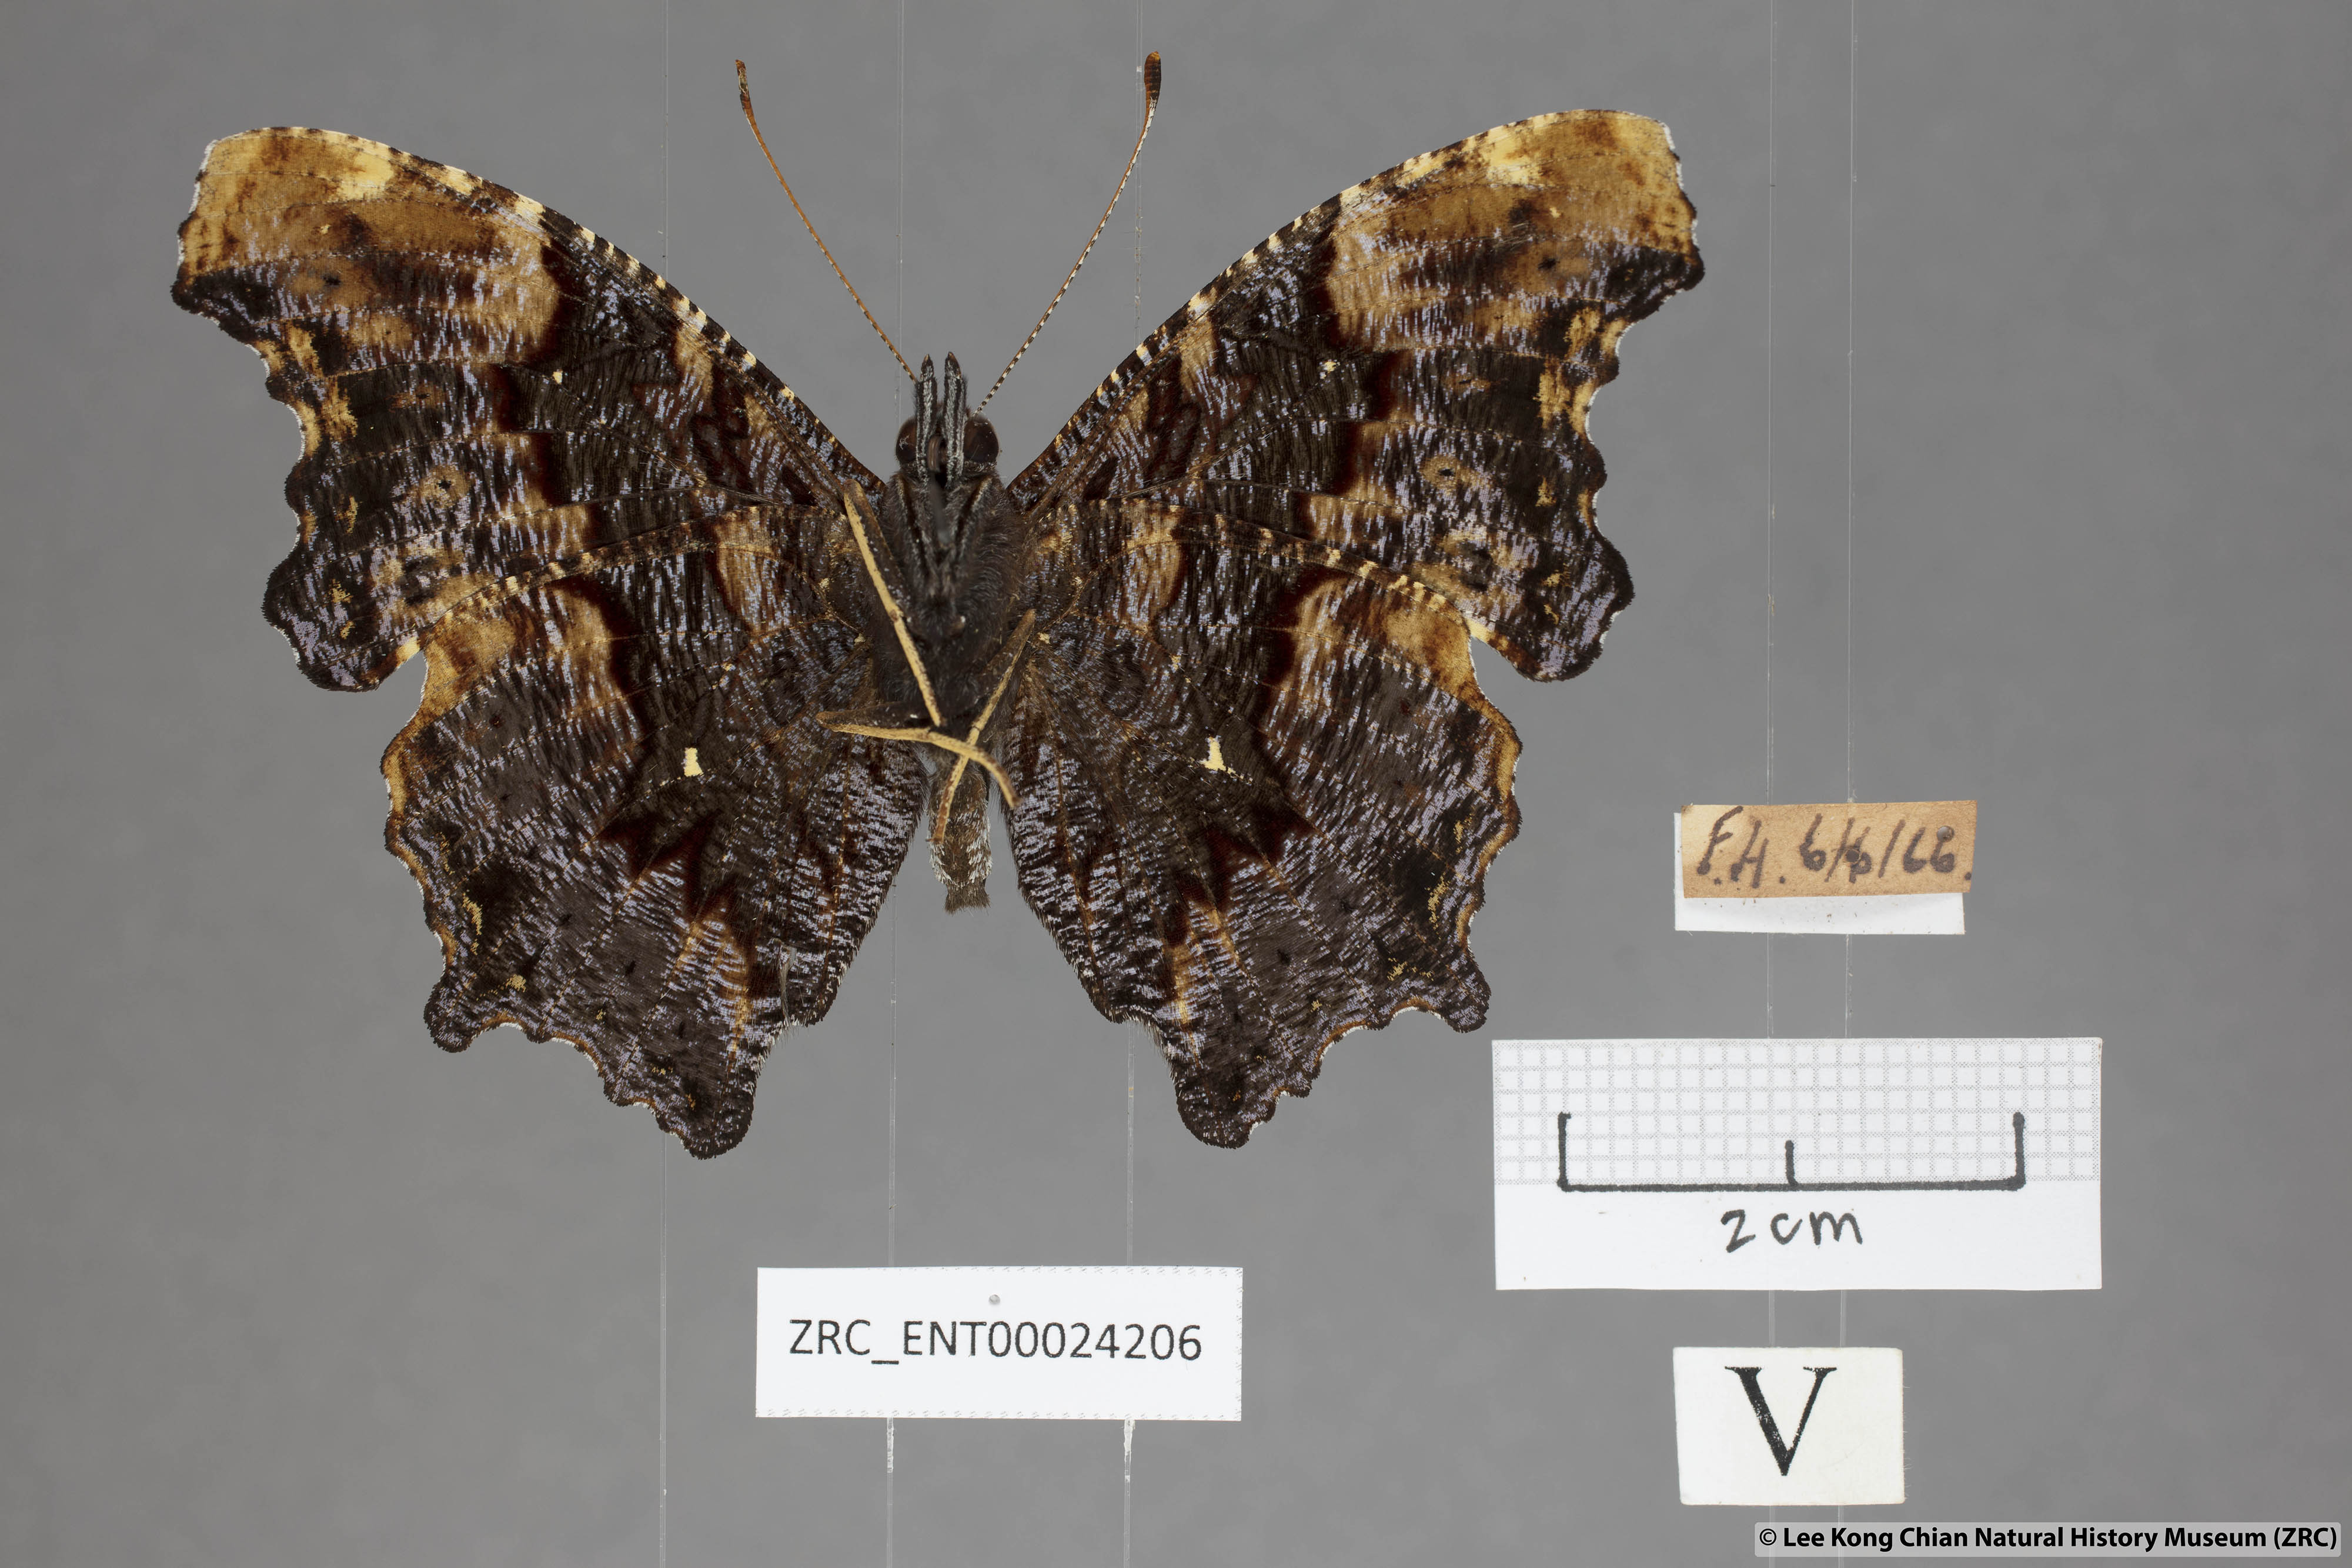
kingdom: Animalia
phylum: Arthropoda
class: Insecta
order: Lepidoptera
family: Nymphalidae
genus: Vanessa
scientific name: Vanessa Kaniska canace
